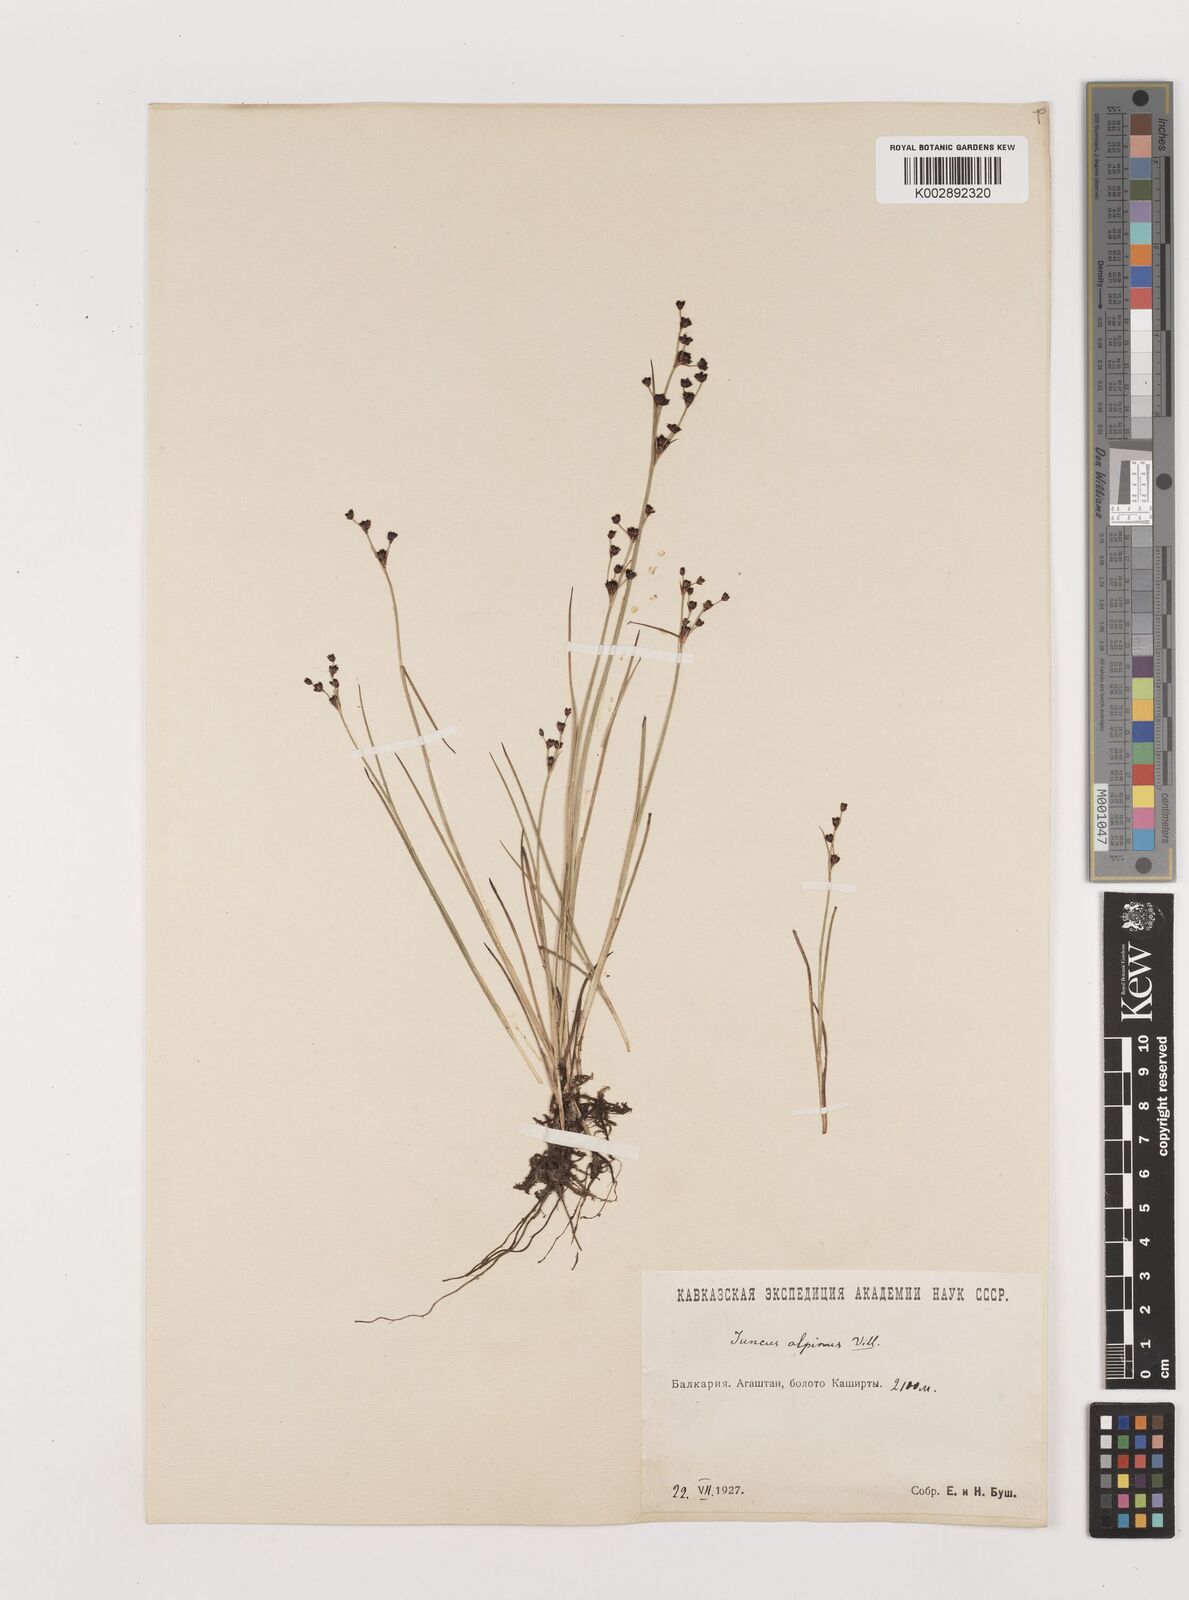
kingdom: Plantae
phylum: Tracheophyta
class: Liliopsida
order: Poales
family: Juncaceae
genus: Juncus
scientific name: Juncus alpinoarticulatus
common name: Alpine rush
